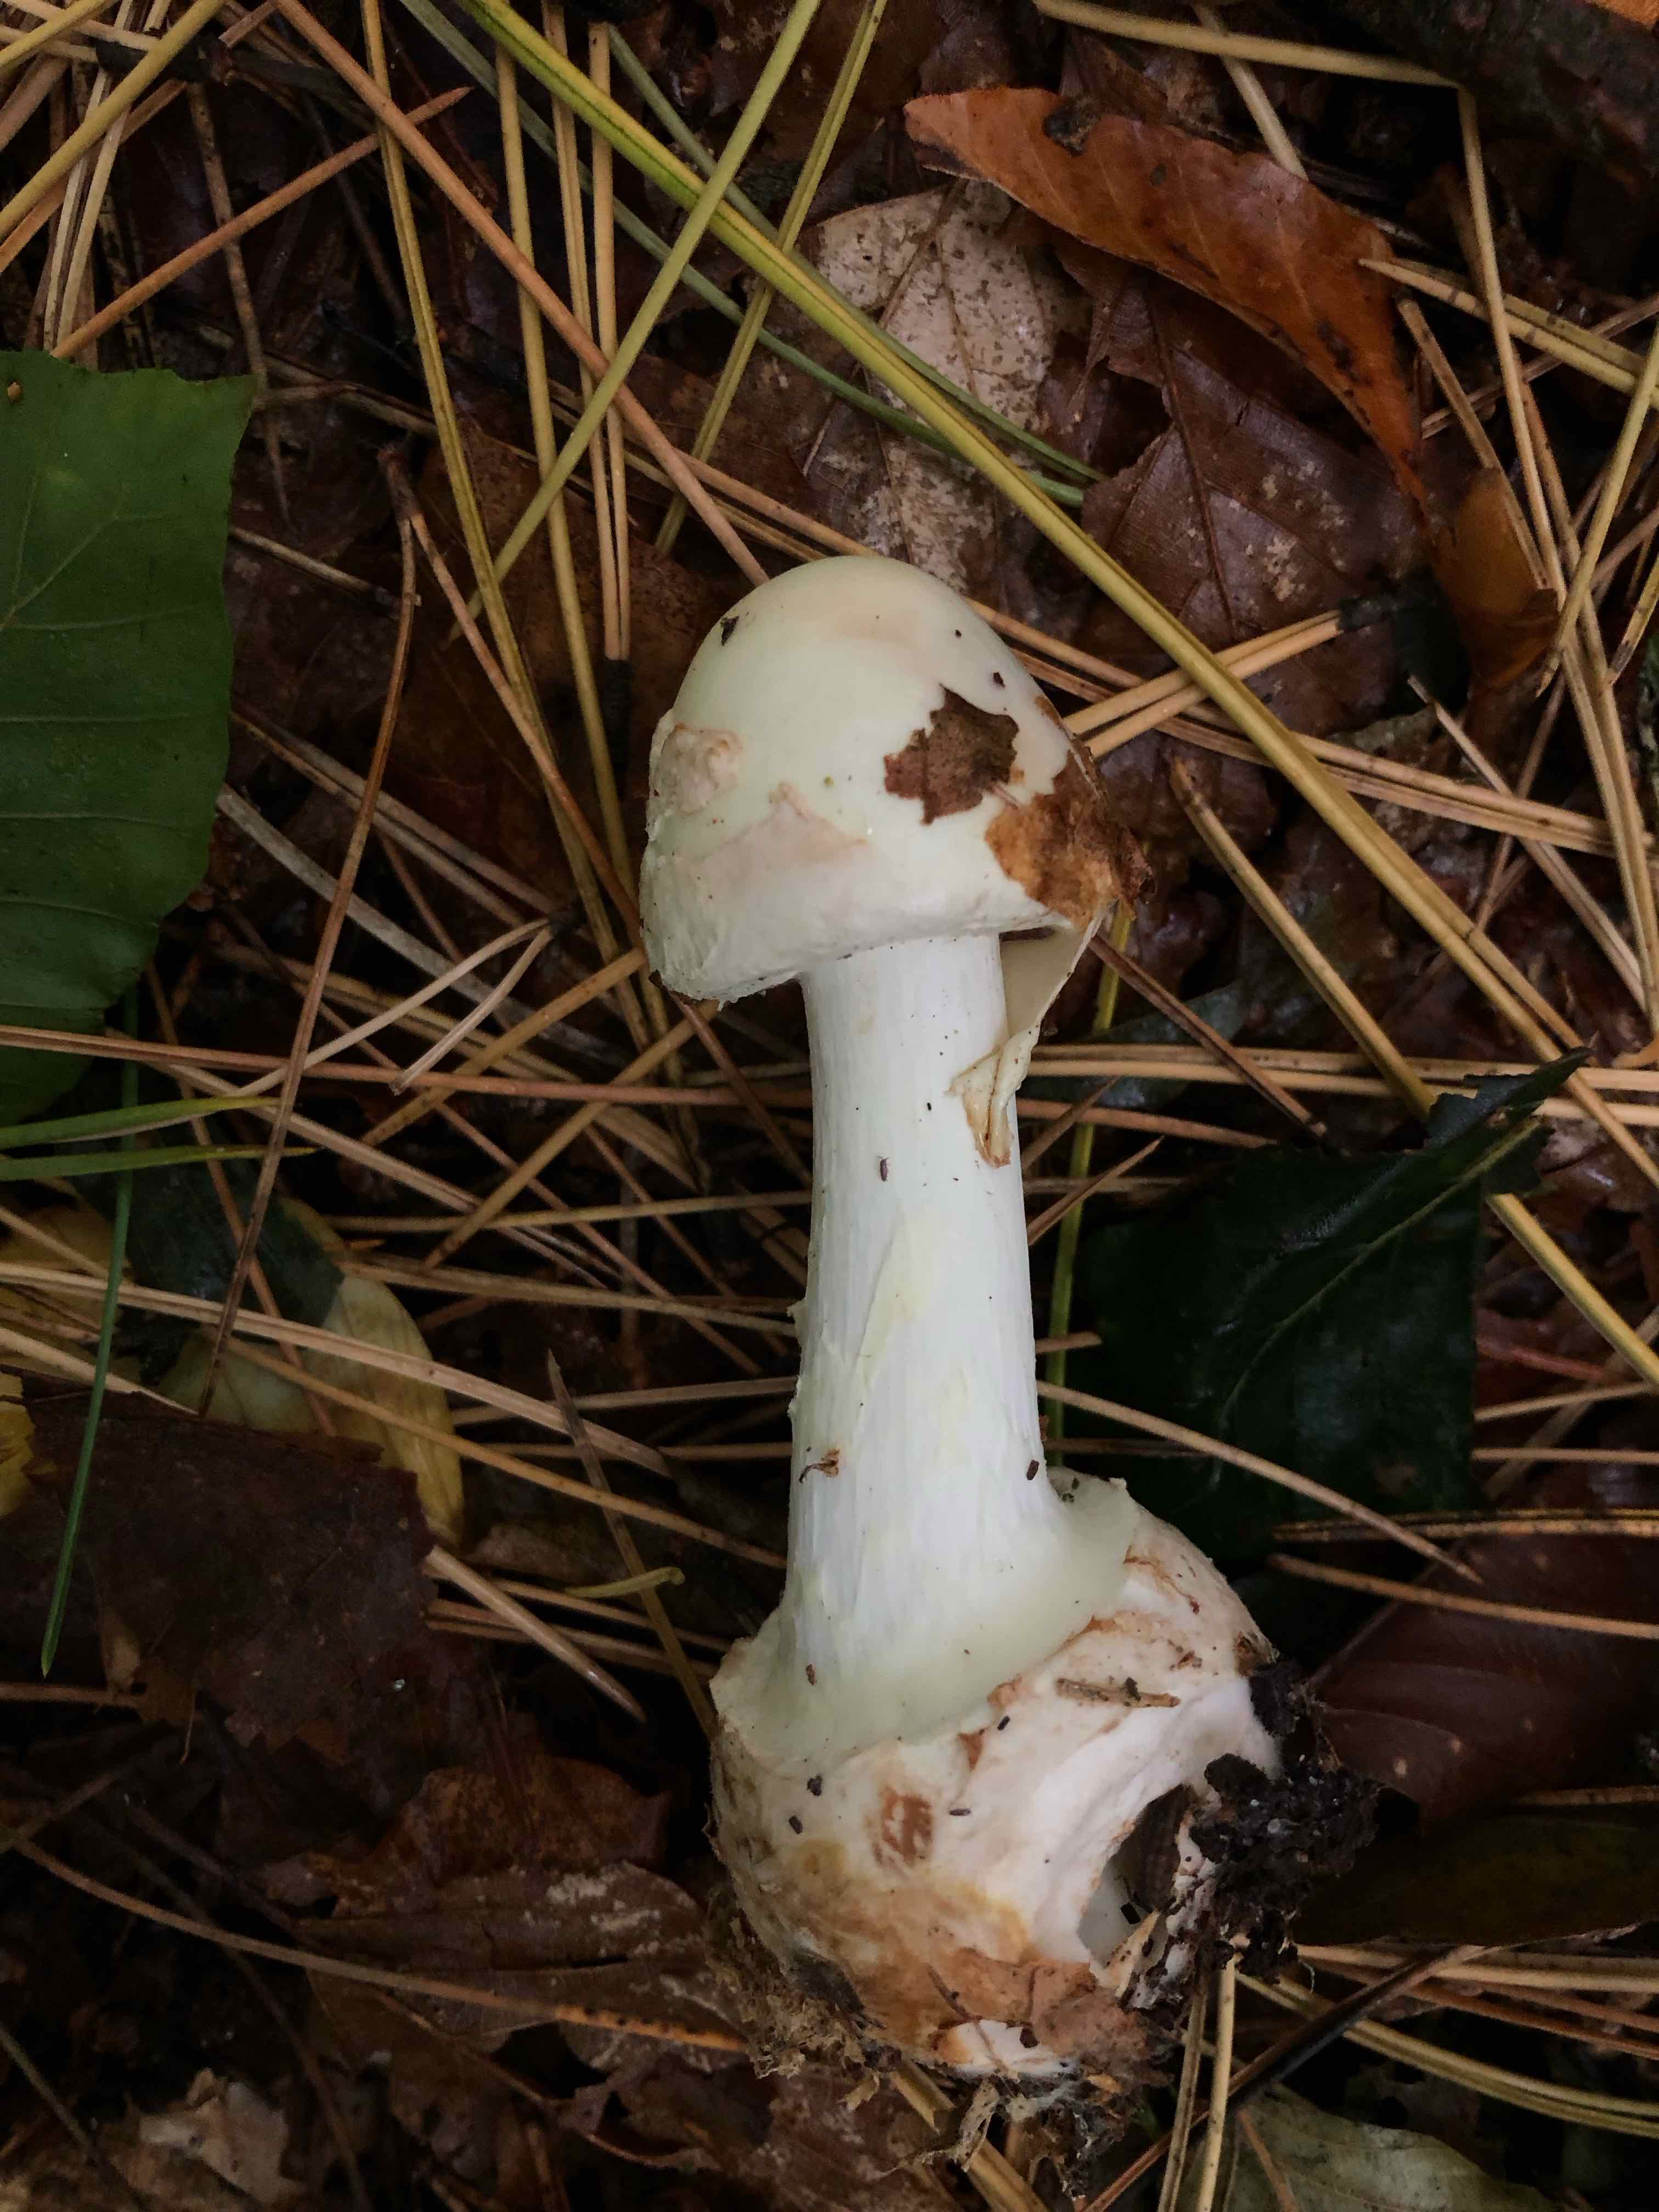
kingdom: Fungi
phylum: Basidiomycota
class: Agaricomycetes
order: Agaricales
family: Amanitaceae
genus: Amanita
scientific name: Amanita citrina
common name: kugleknoldet fluesvamp
